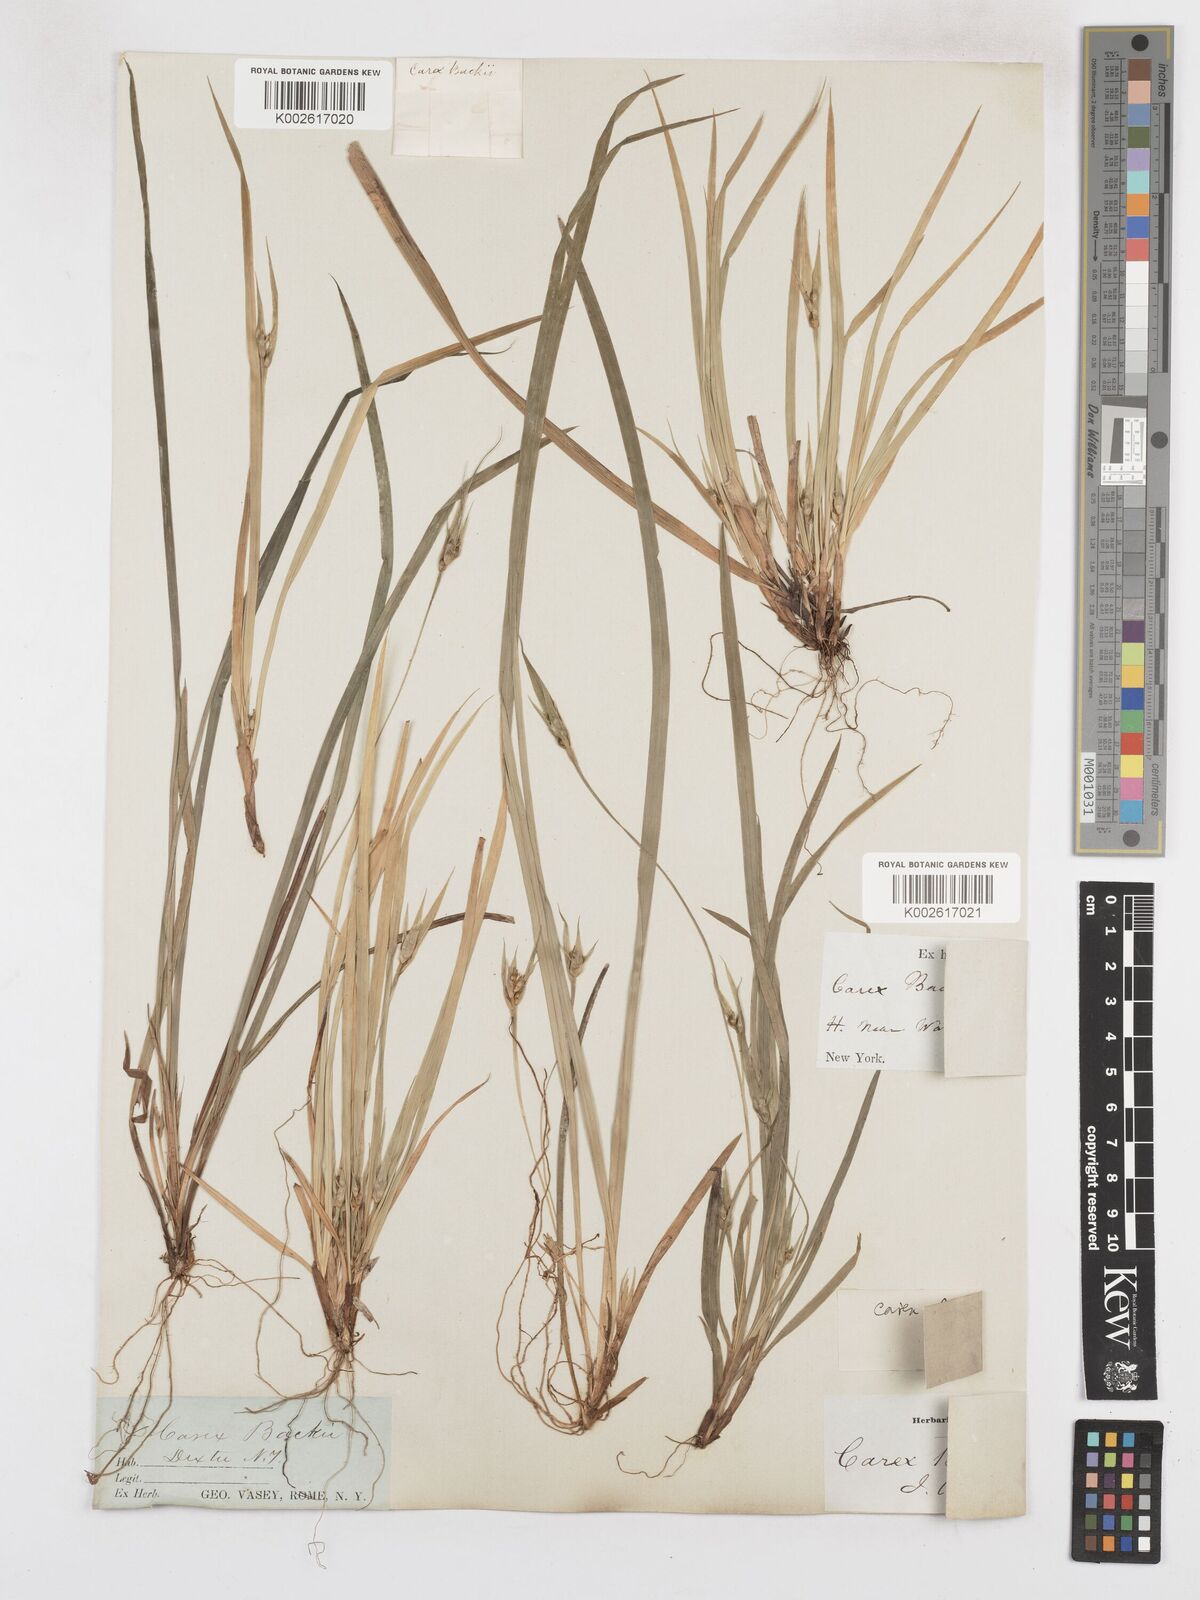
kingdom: Plantae
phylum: Tracheophyta
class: Liliopsida
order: Poales
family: Cyperaceae
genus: Carex
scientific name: Carex backii
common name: Back's sedge
